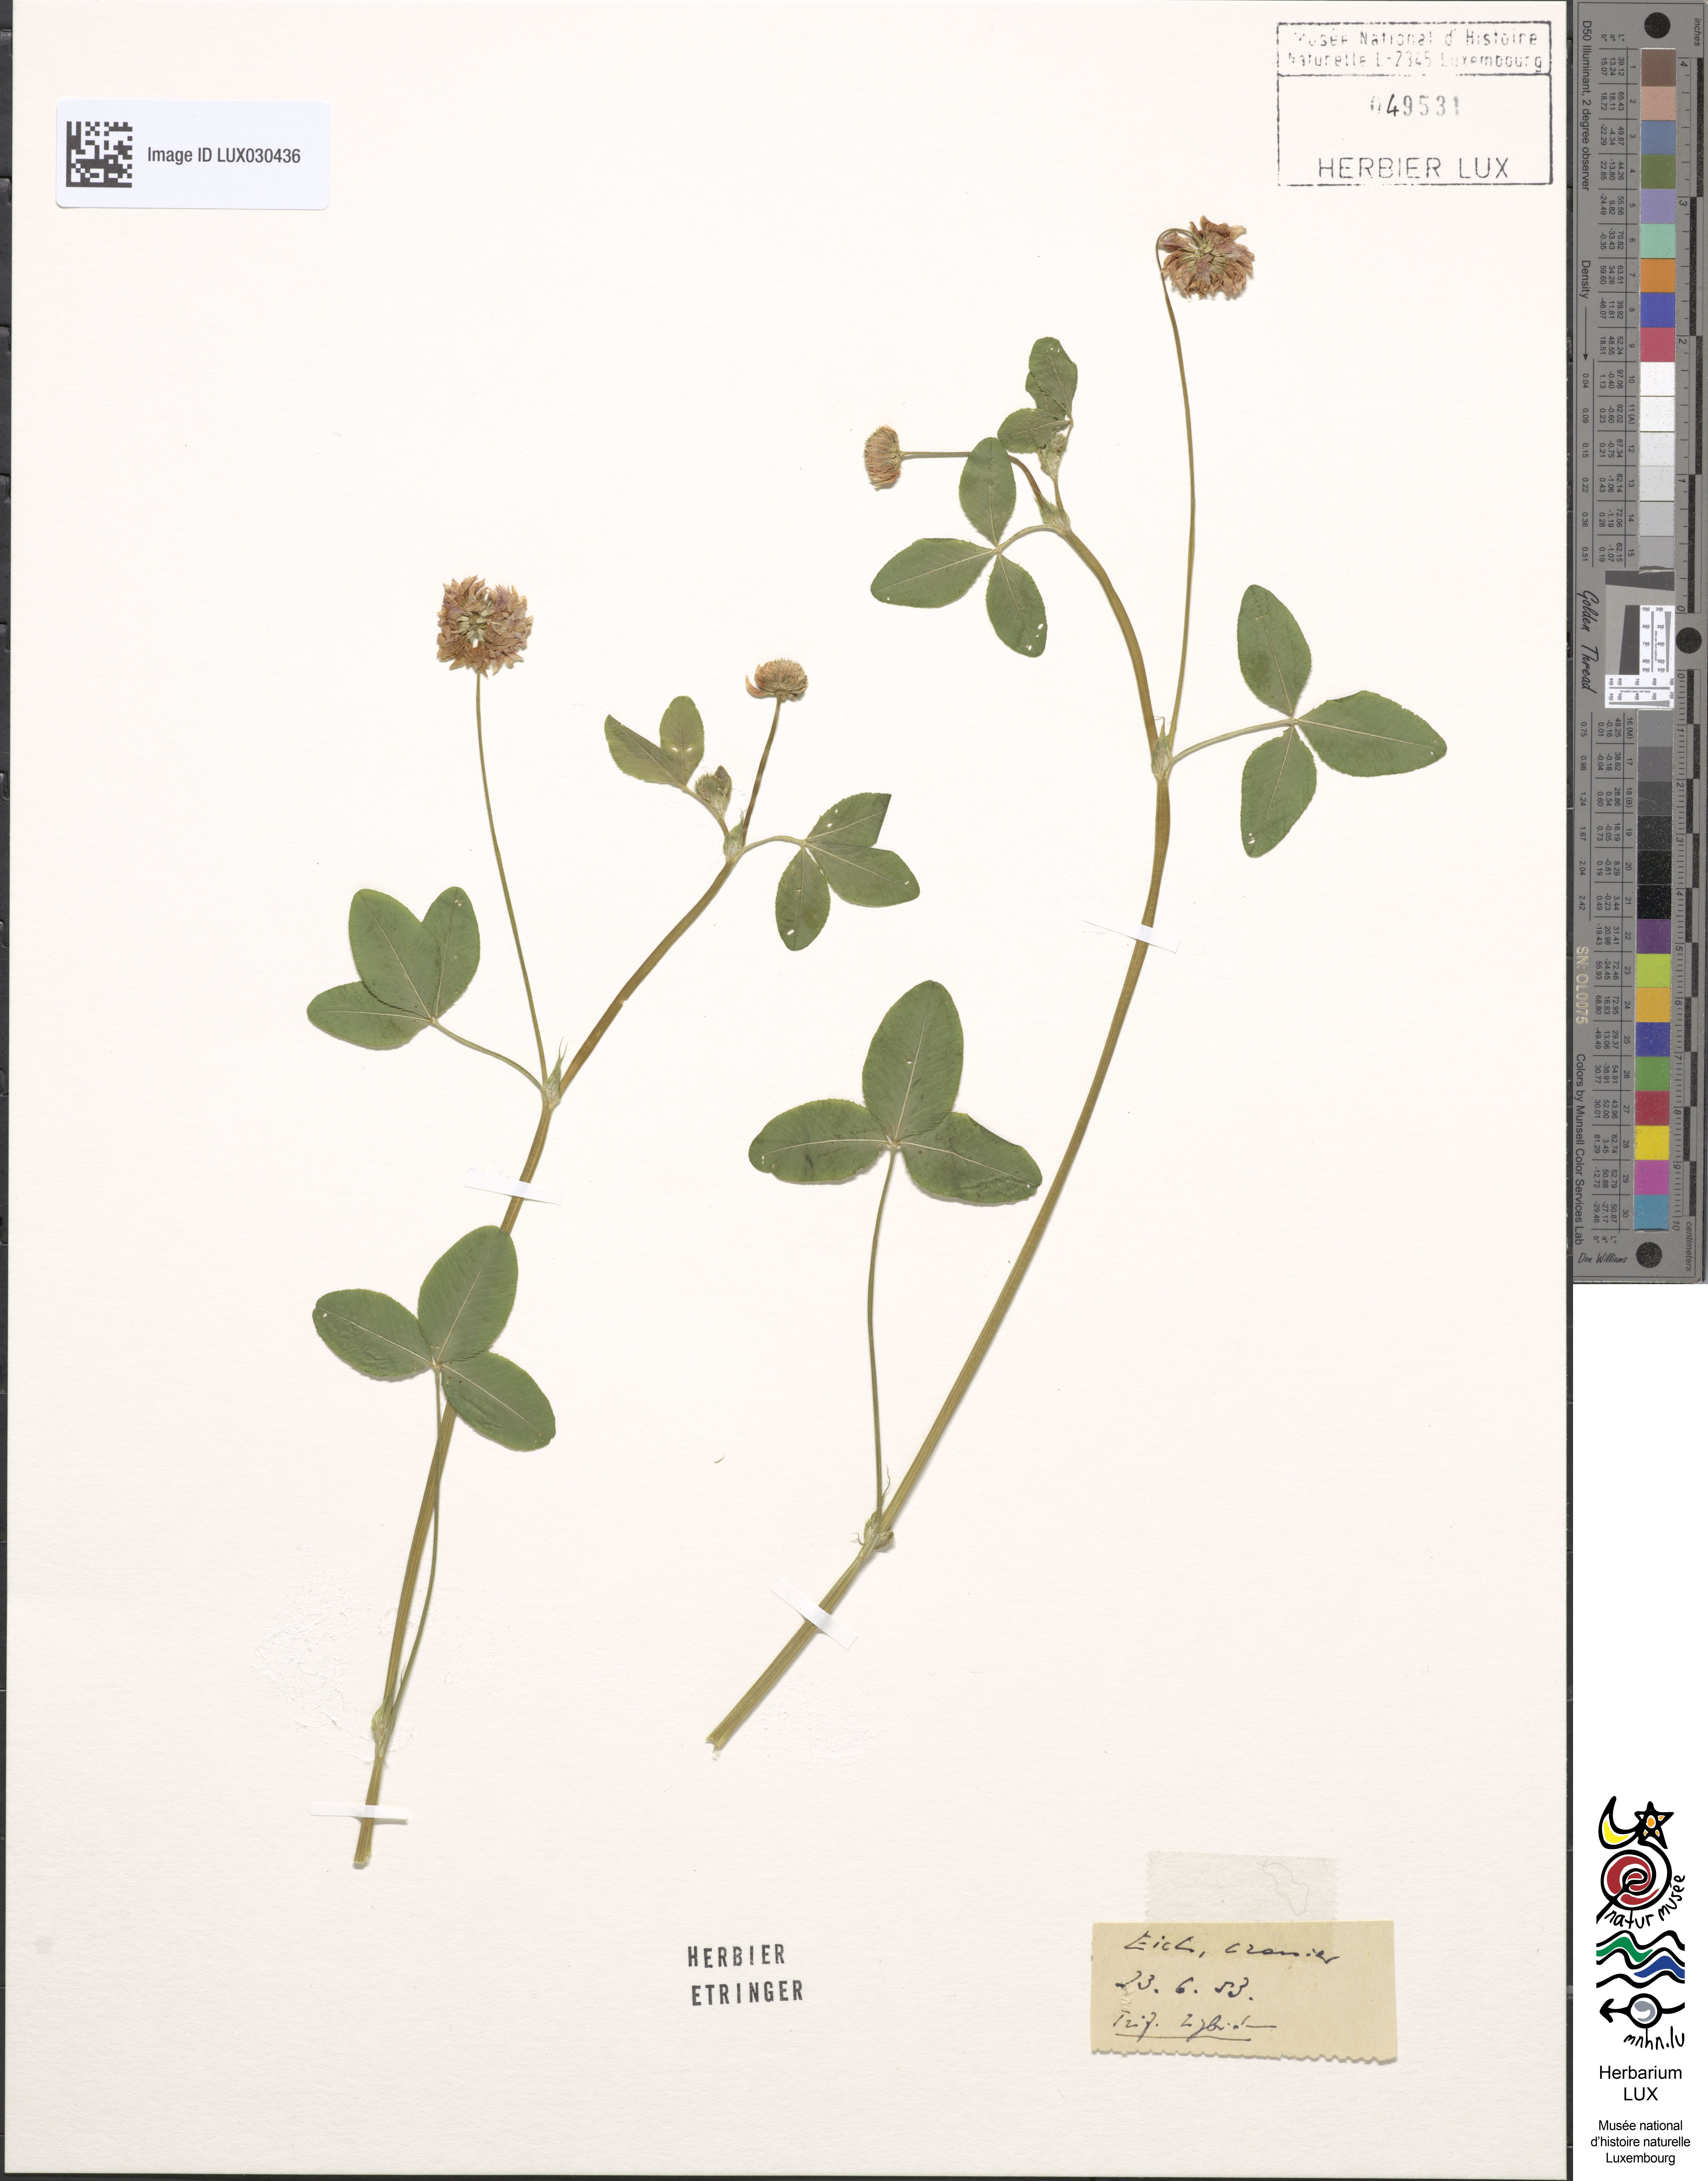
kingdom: Plantae
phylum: Tracheophyta
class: Magnoliopsida
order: Fabales
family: Fabaceae
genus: Trifolium
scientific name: Trifolium hybridum
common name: Alsike clover
